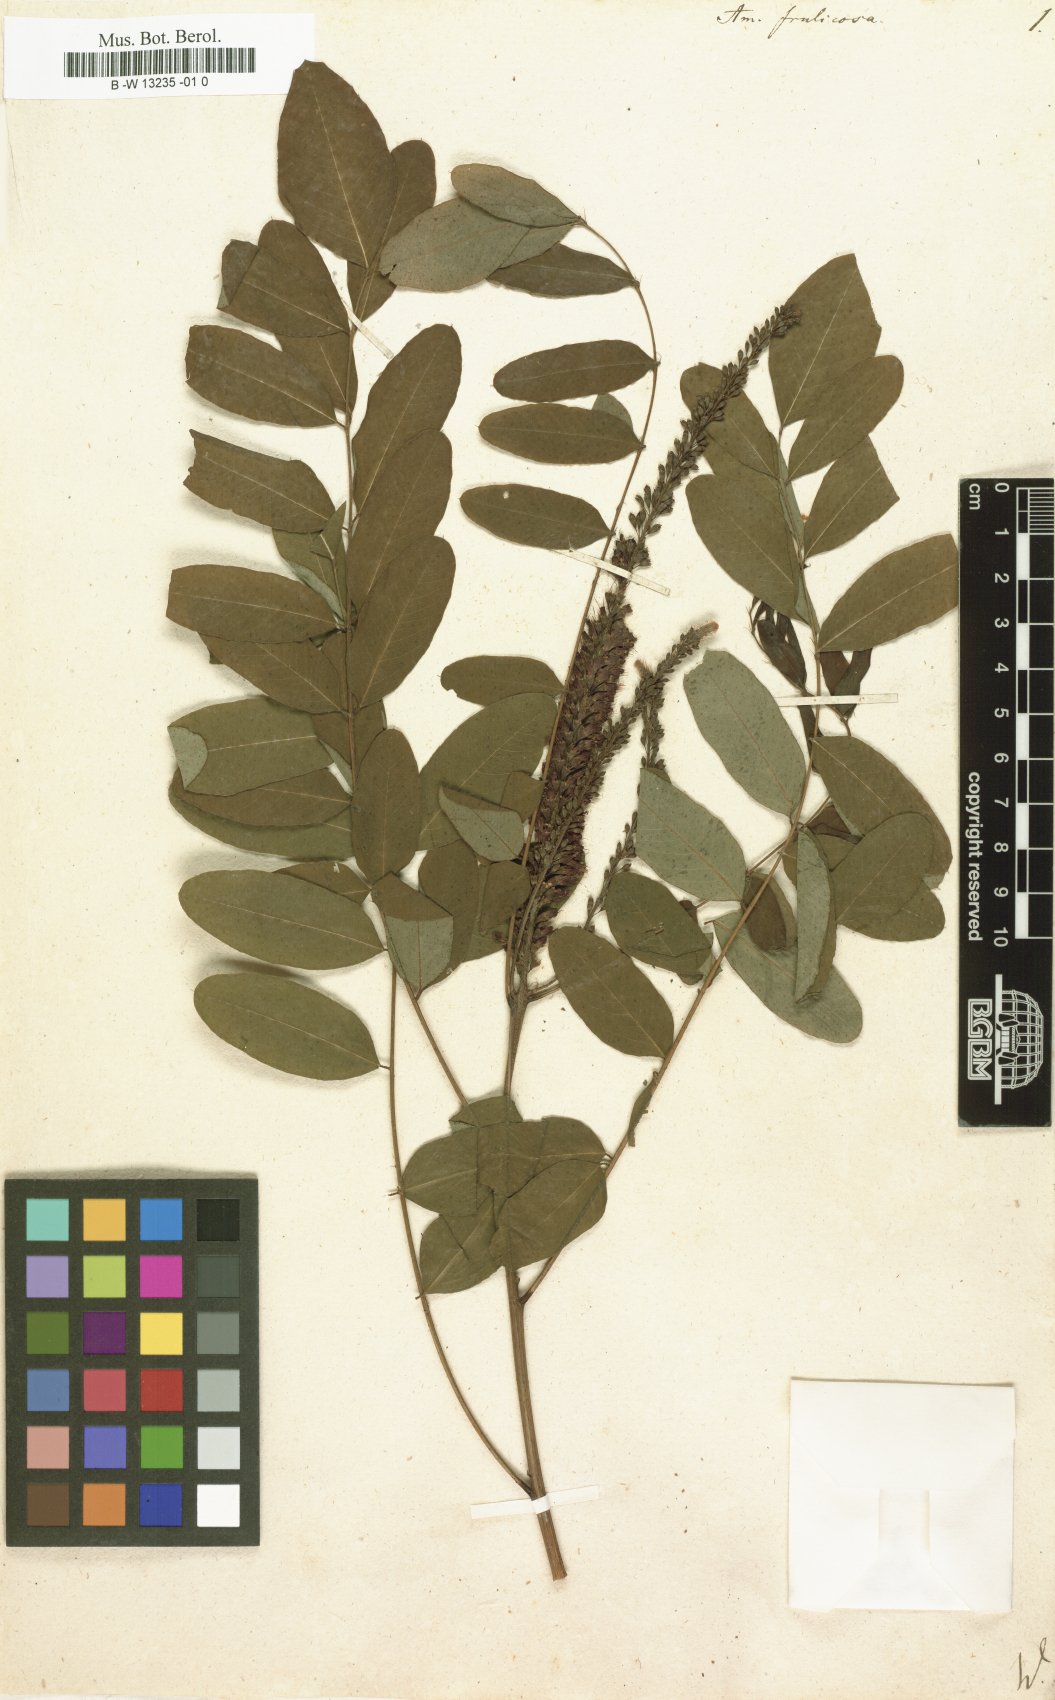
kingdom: Plantae
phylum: Tracheophyta
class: Magnoliopsida
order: Fabales
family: Fabaceae
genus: Amorpha
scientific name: Amorpha fruticosa
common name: False indigo
